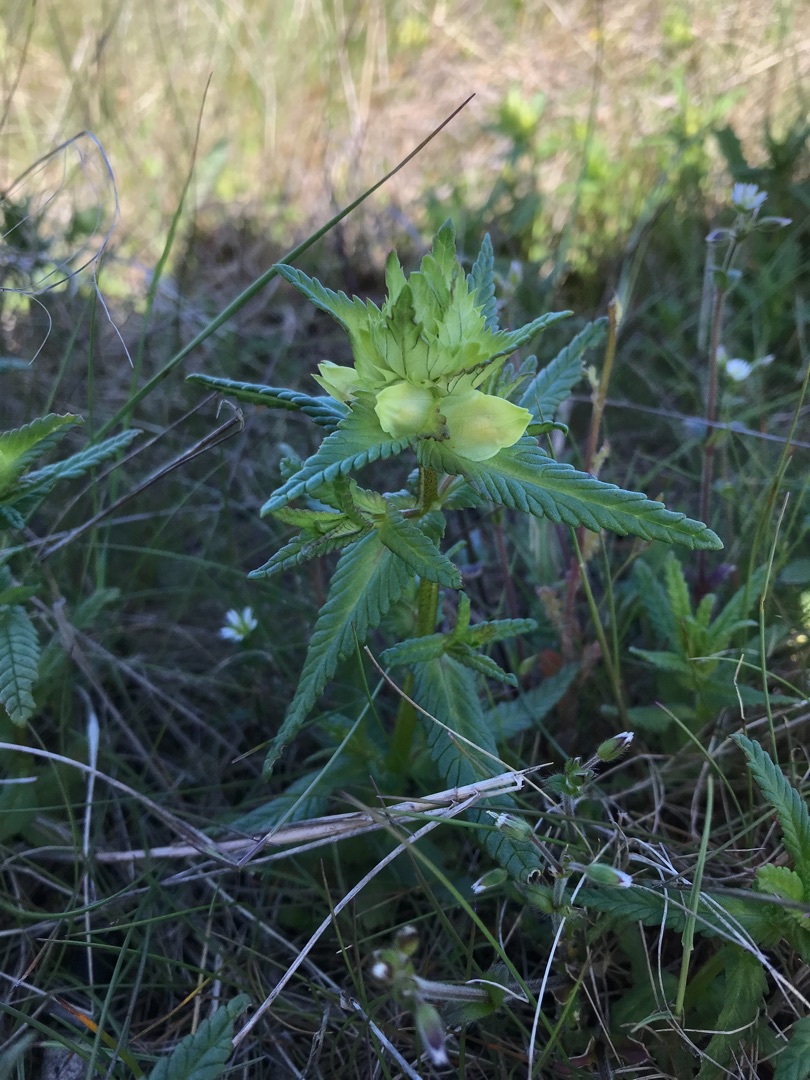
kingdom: Plantae
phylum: Tracheophyta
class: Magnoliopsida
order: Lamiales
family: Orobanchaceae
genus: Rhinanthus
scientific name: Rhinanthus
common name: Stor skjaller
